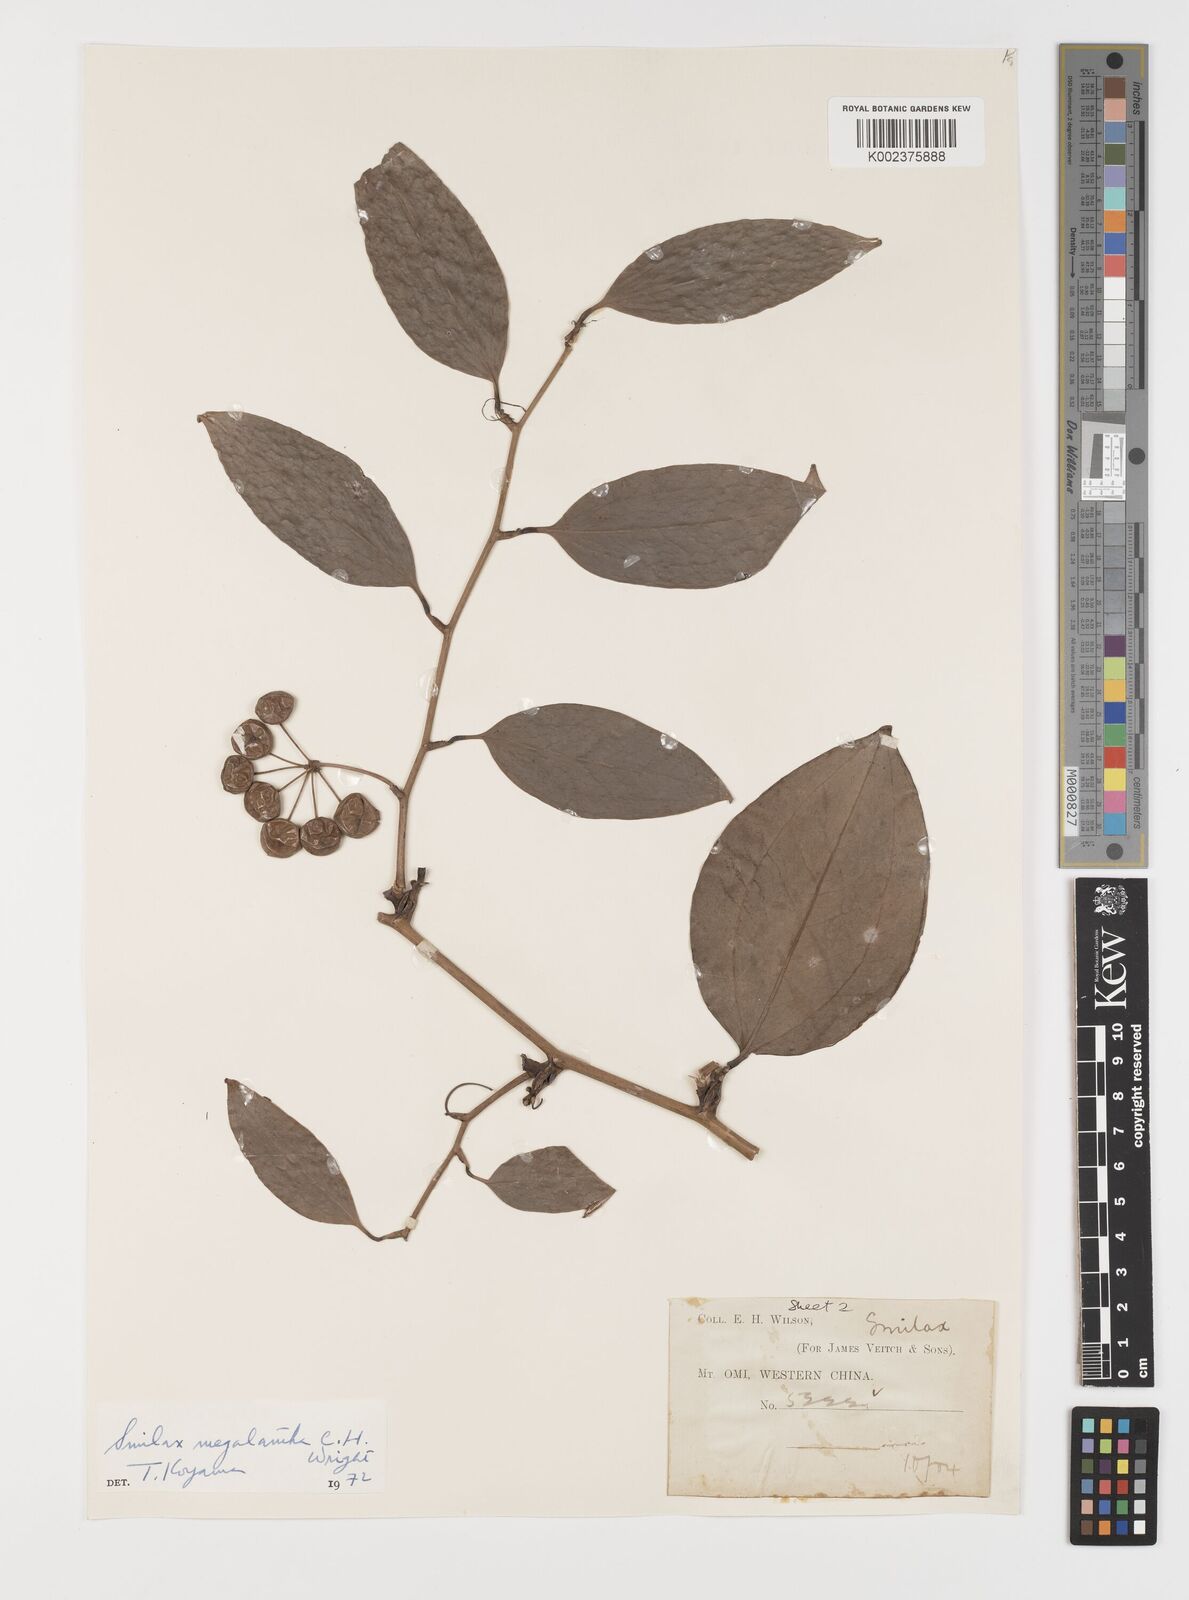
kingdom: Plantae
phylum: Tracheophyta
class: Liliopsida
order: Liliales
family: Smilacaceae
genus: Smilax
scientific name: Smilax megalantha
